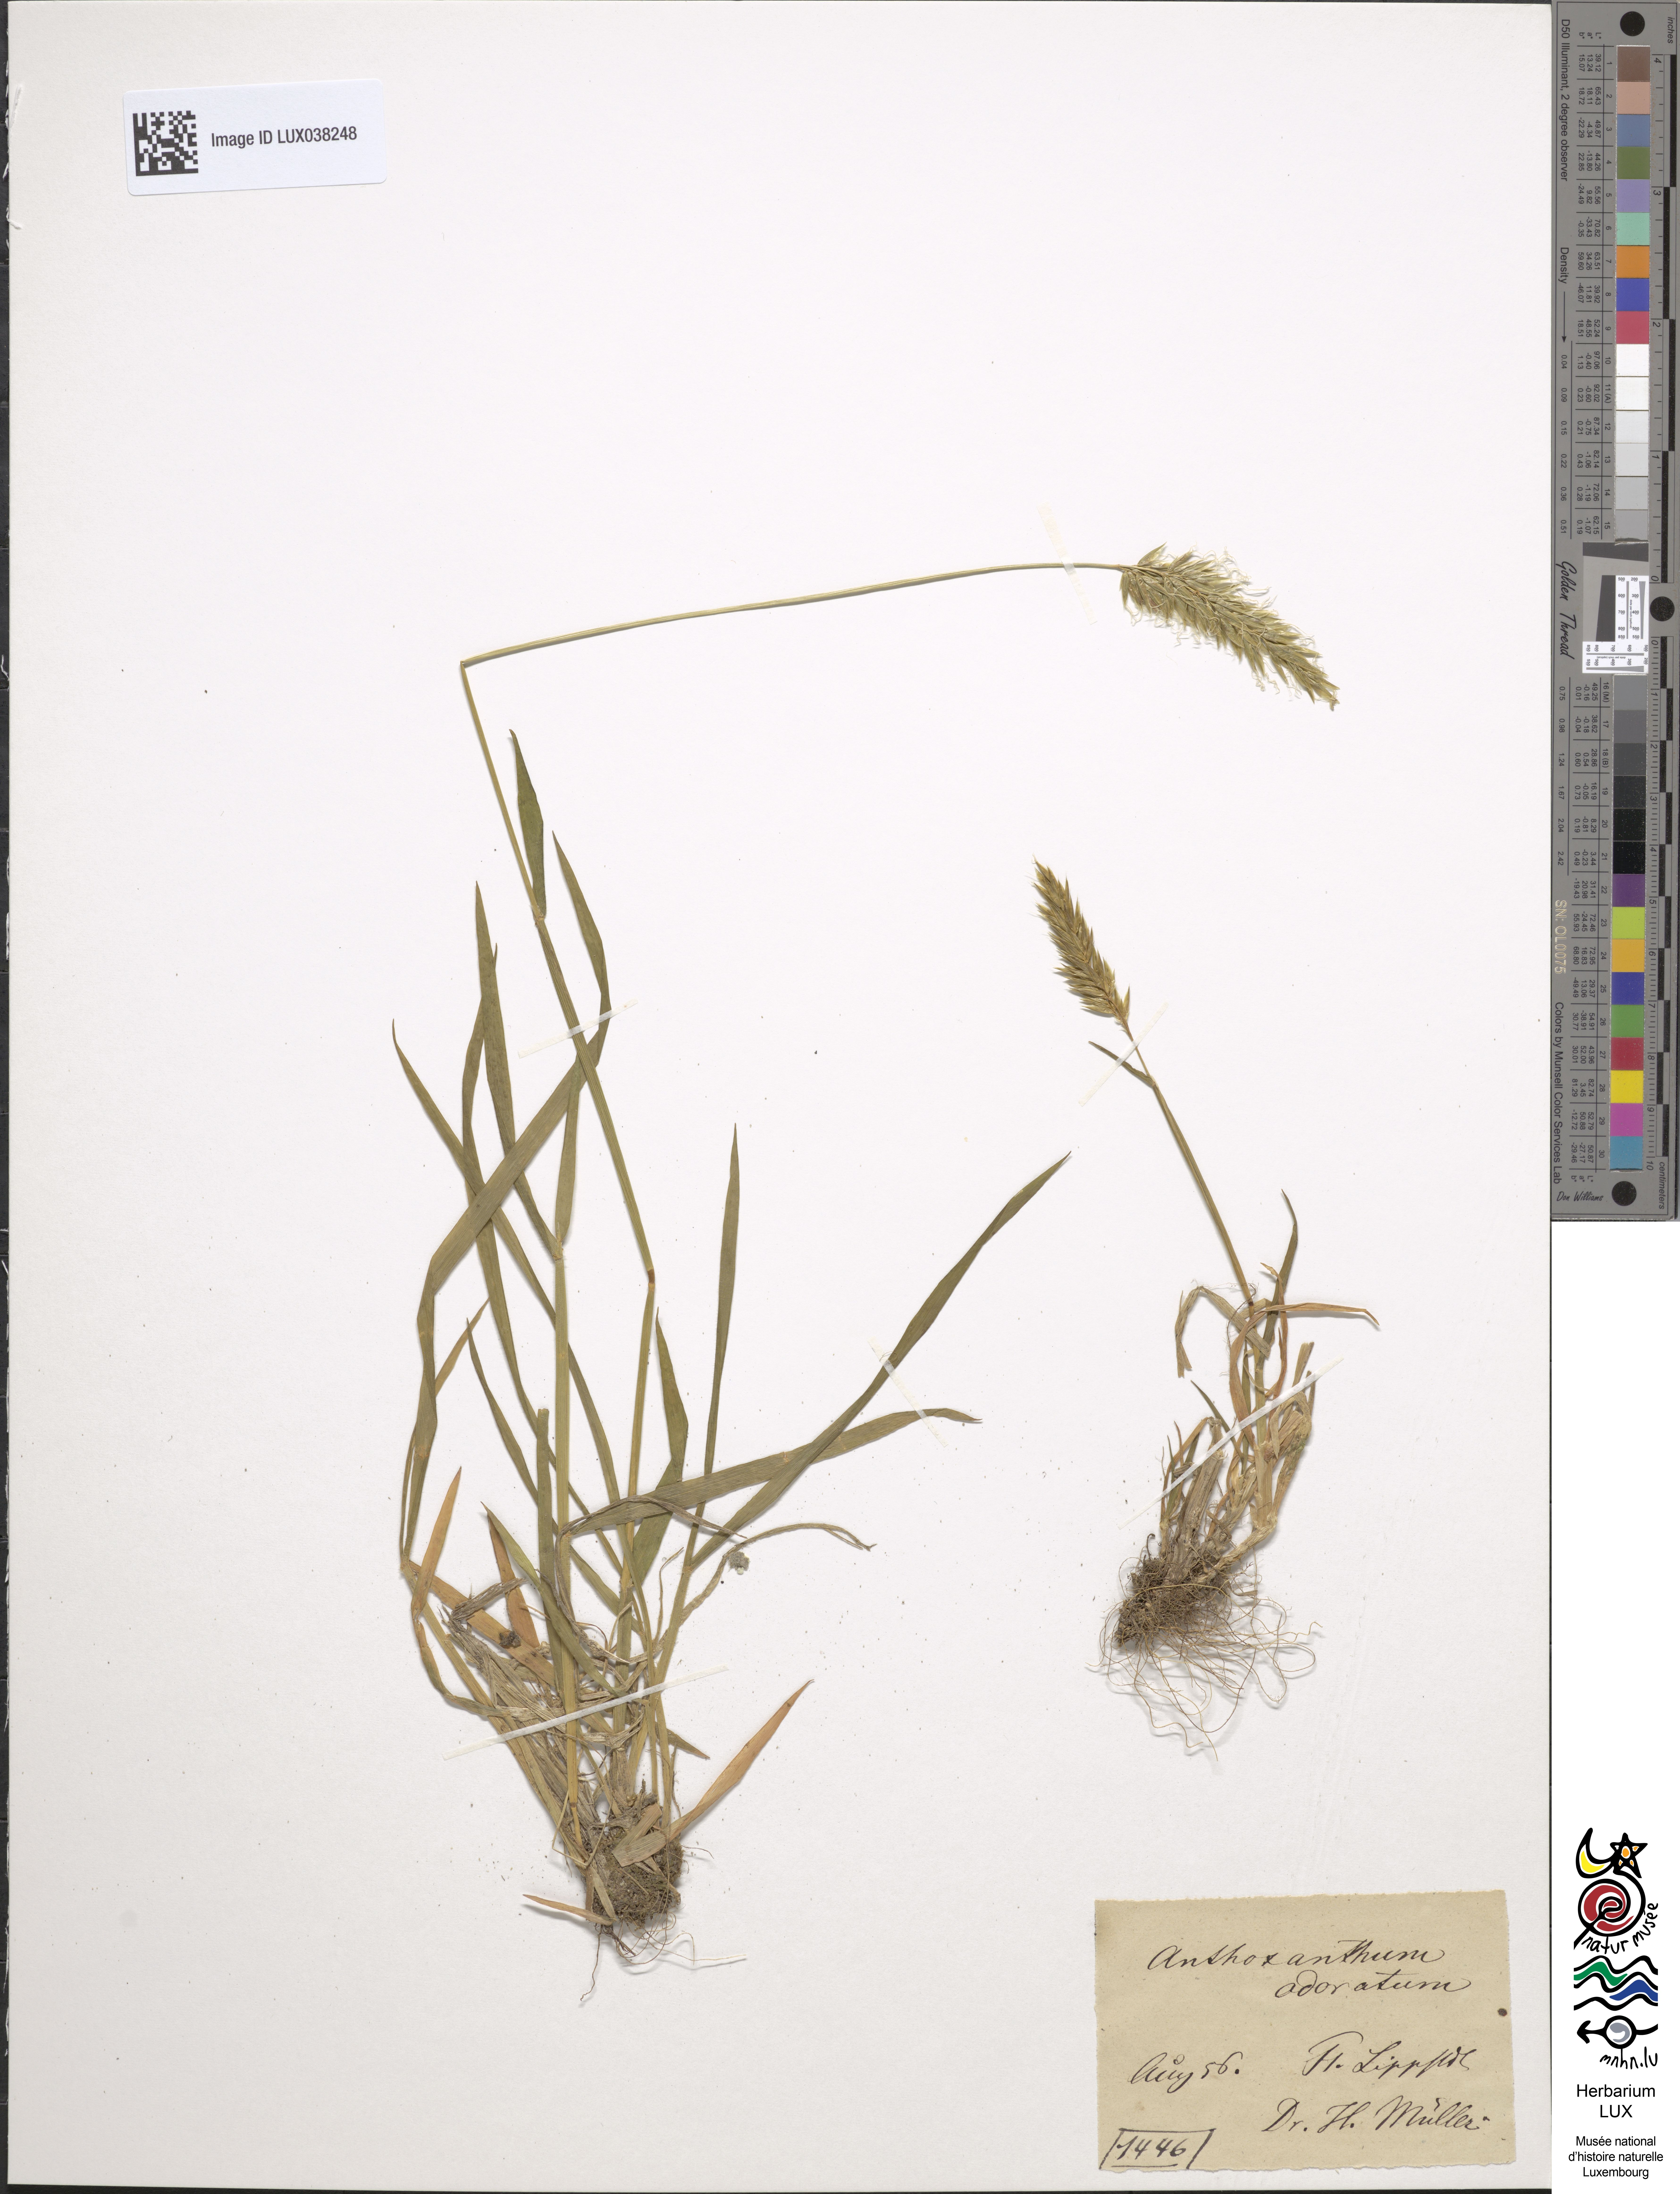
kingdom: Plantae
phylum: Tracheophyta
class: Liliopsida
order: Poales
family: Poaceae
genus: Anthoxanthum
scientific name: Anthoxanthum odoratum
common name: Sweet vernalgrass
